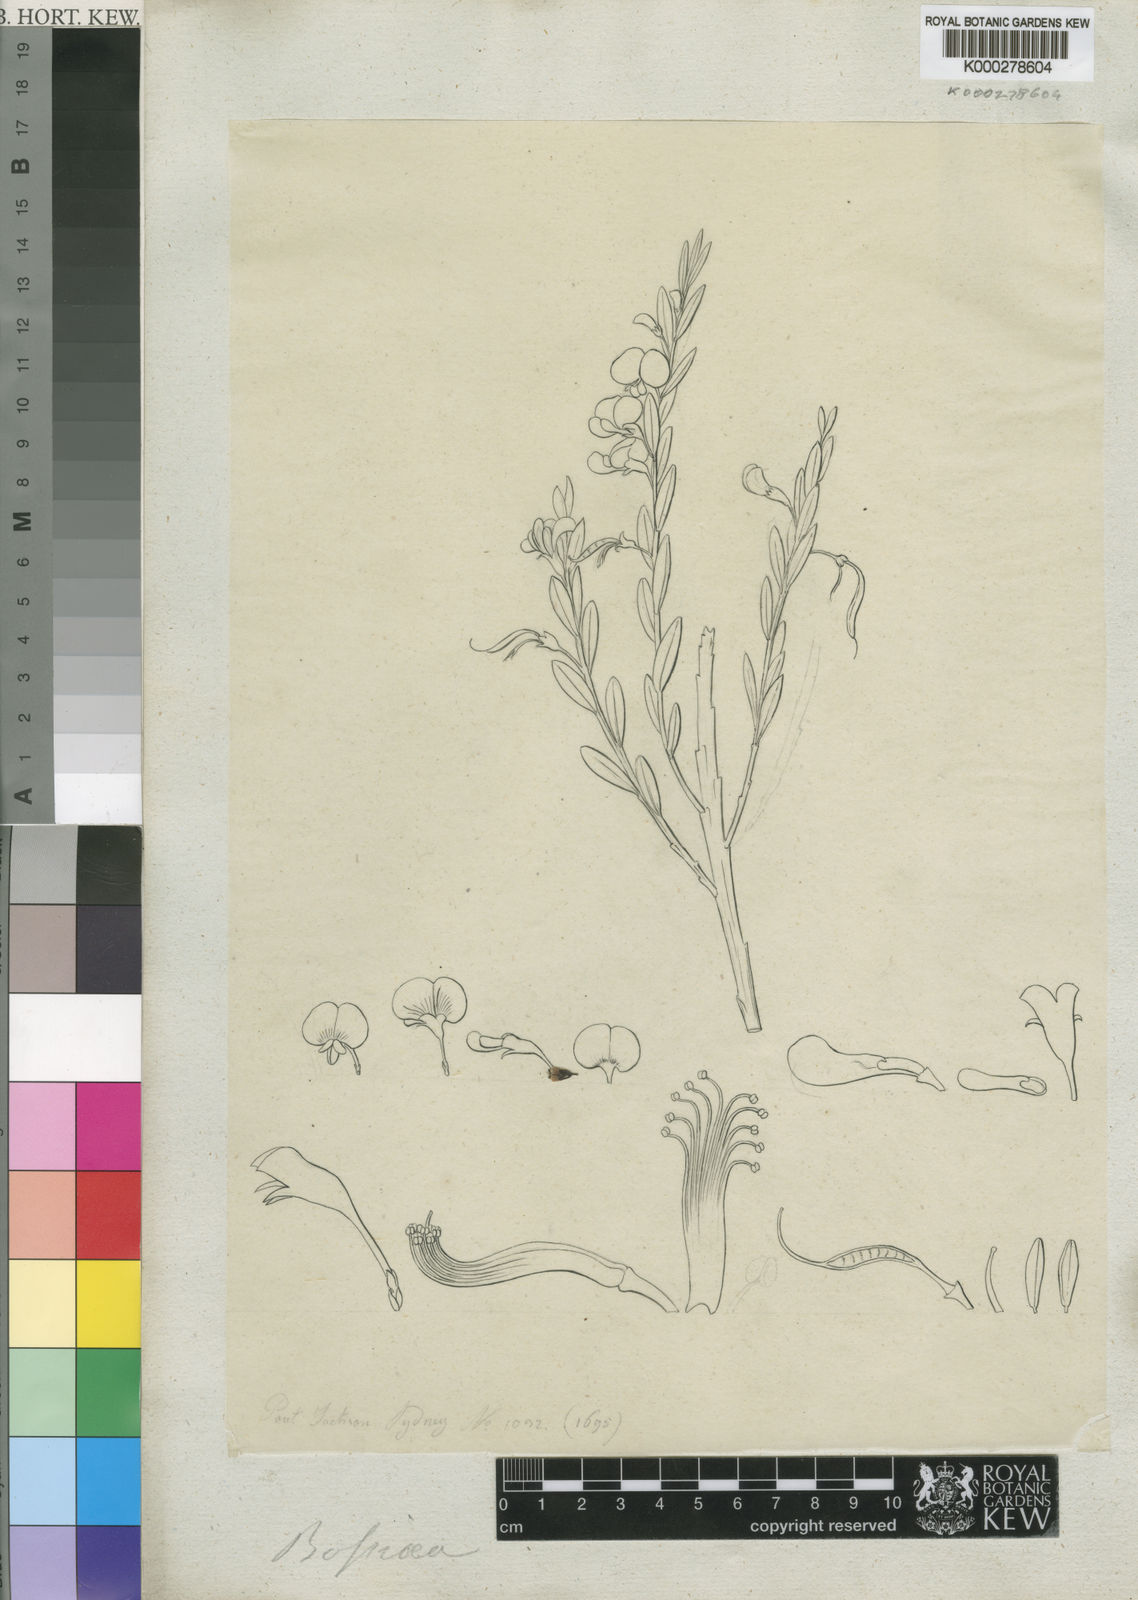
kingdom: Plantae
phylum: Tracheophyta
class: Magnoliopsida
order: Fabales
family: Fabaceae
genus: Bossiaea
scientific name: Bossiaea
